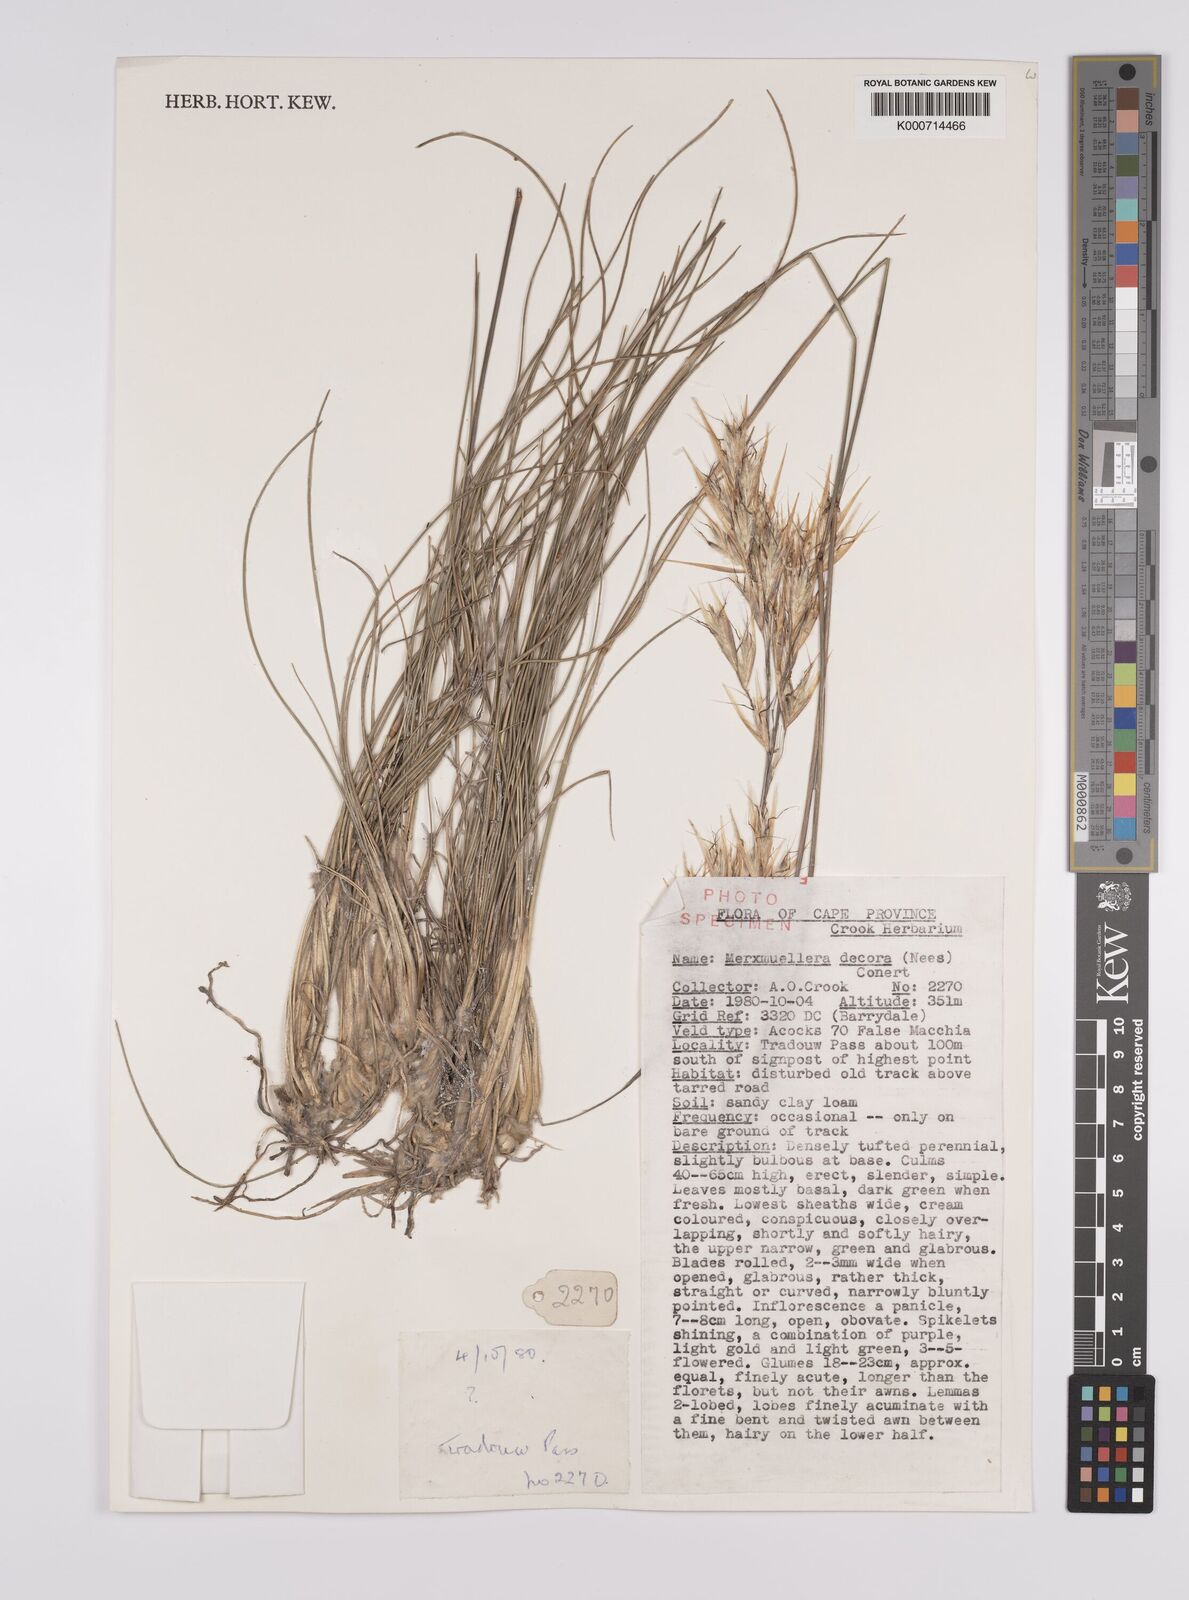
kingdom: Plantae
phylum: Tracheophyta
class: Liliopsida
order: Poales
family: Poaceae
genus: Rytidosperma
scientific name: Rytidosperma
